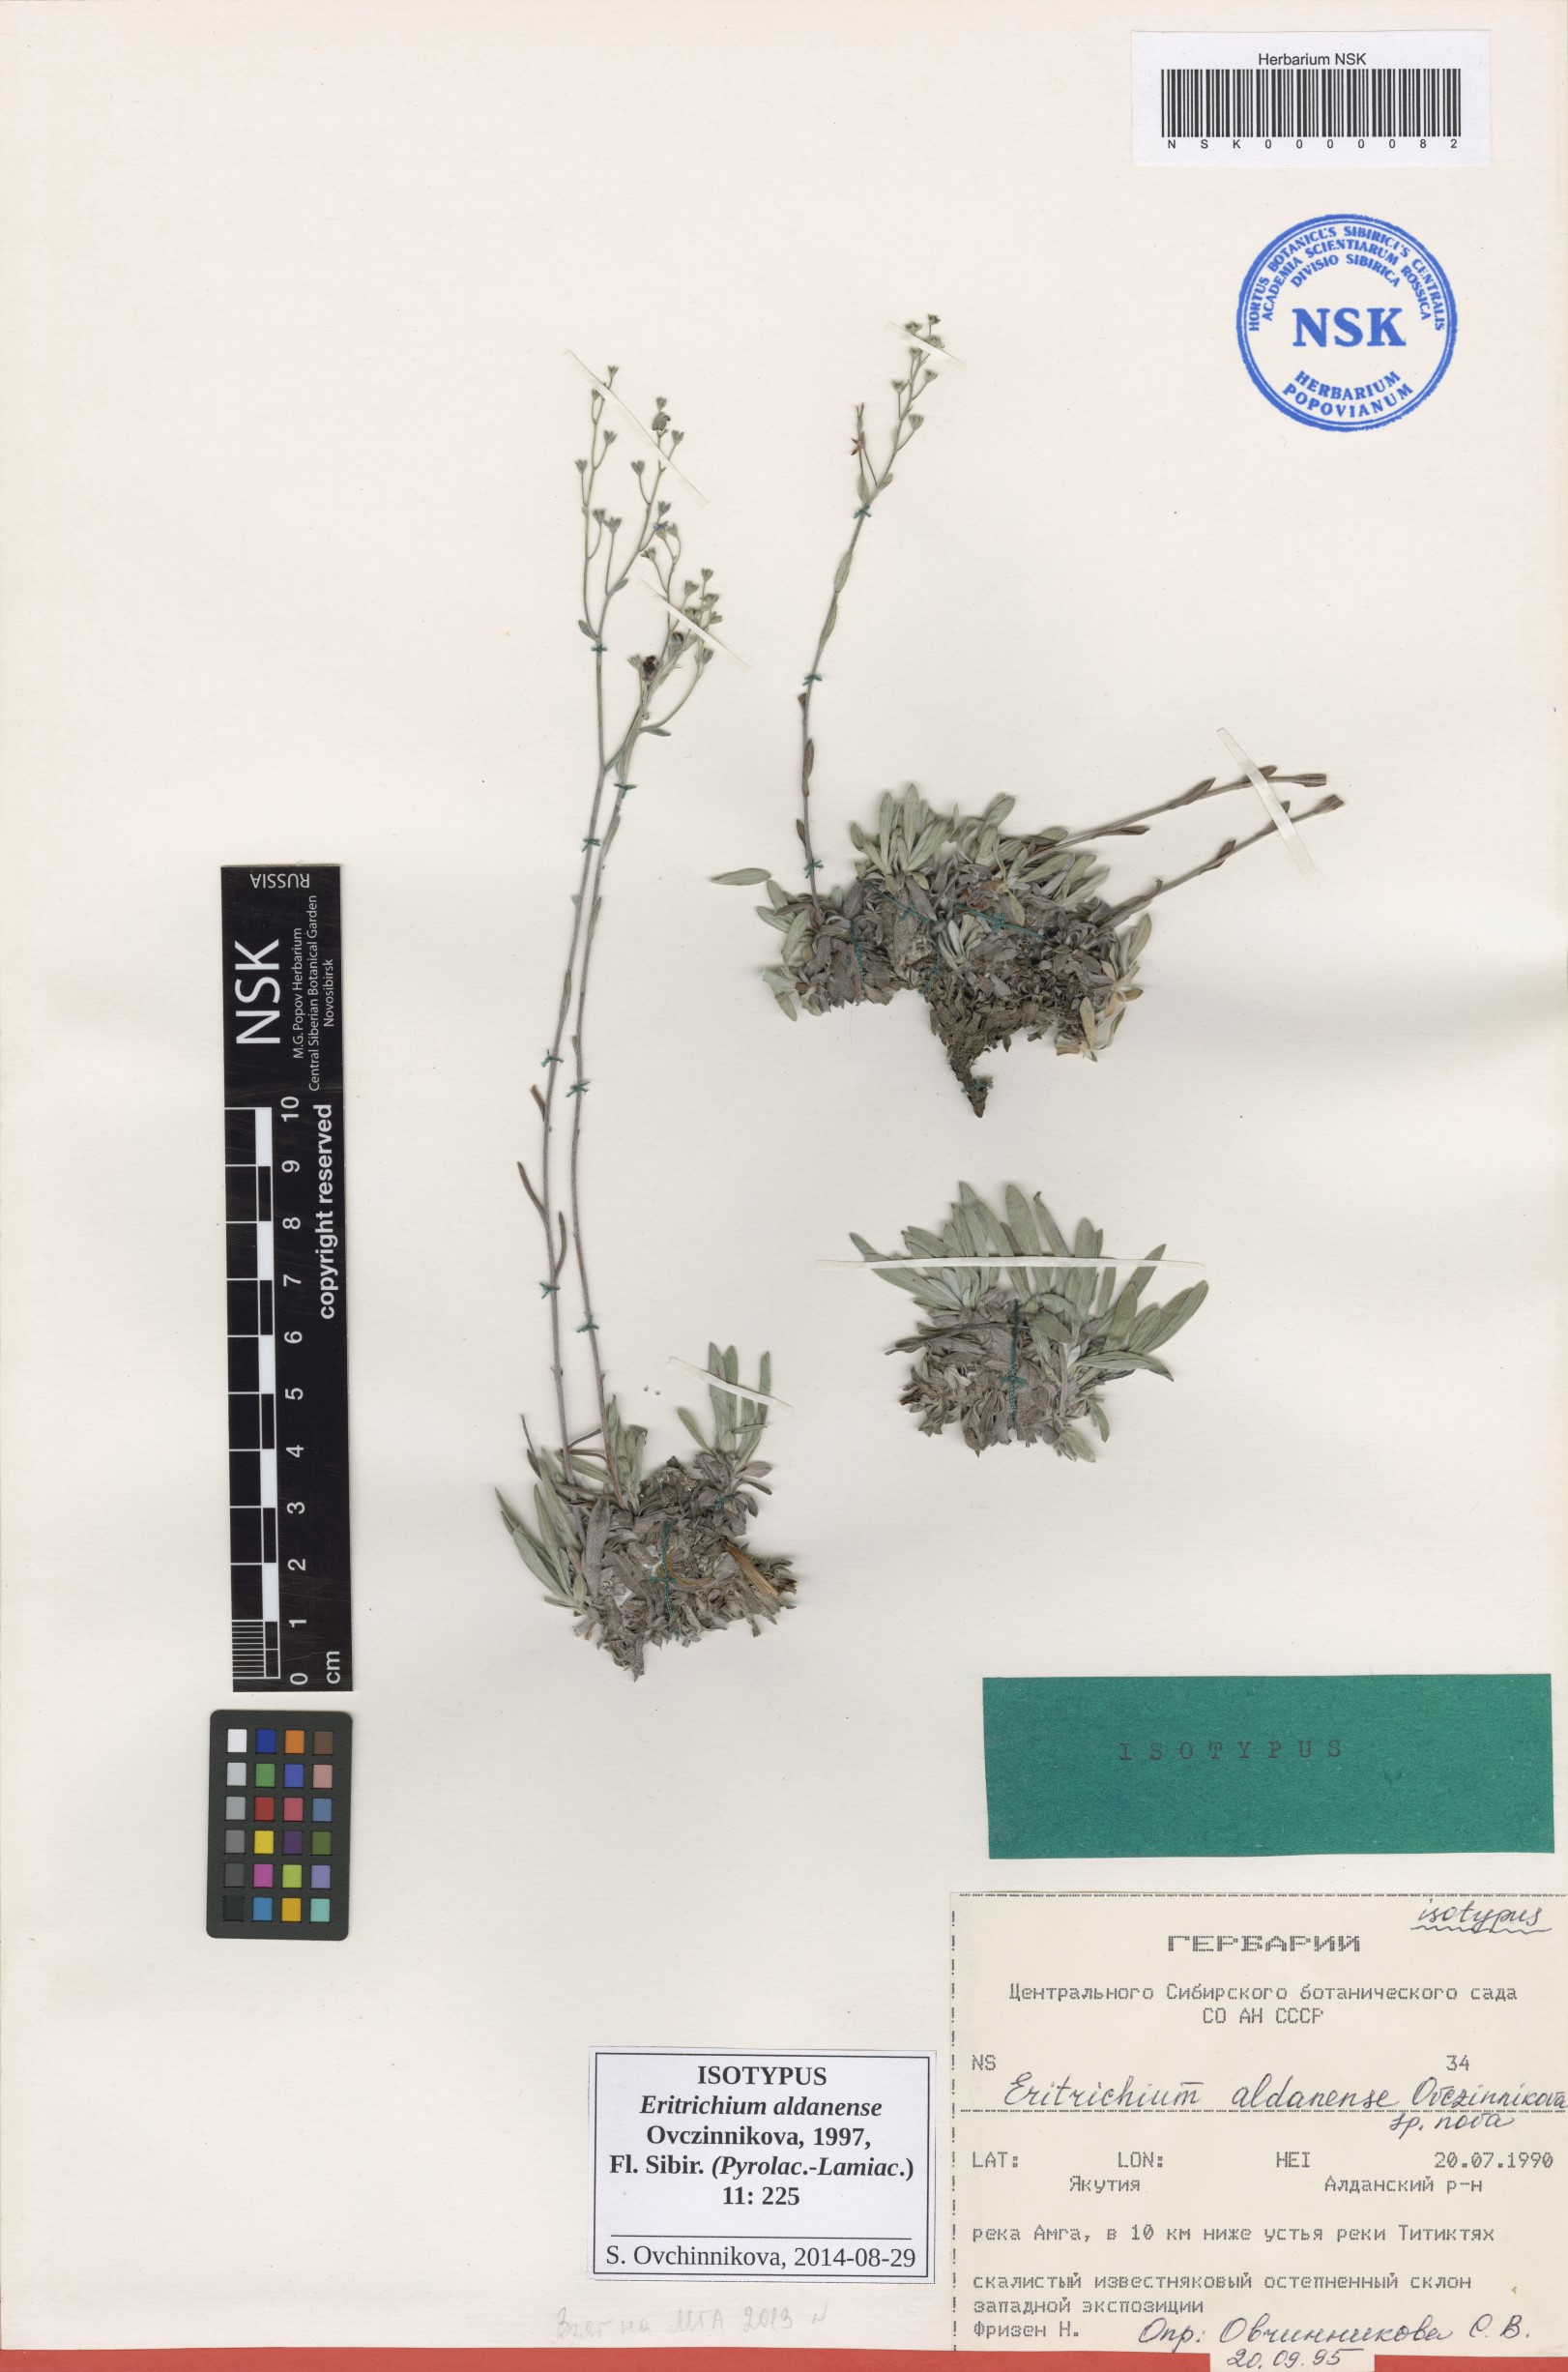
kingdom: Plantae
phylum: Tracheophyta
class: Magnoliopsida
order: Boraginales
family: Boraginaceae
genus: Eritrichium
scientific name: Eritrichium aldanense
